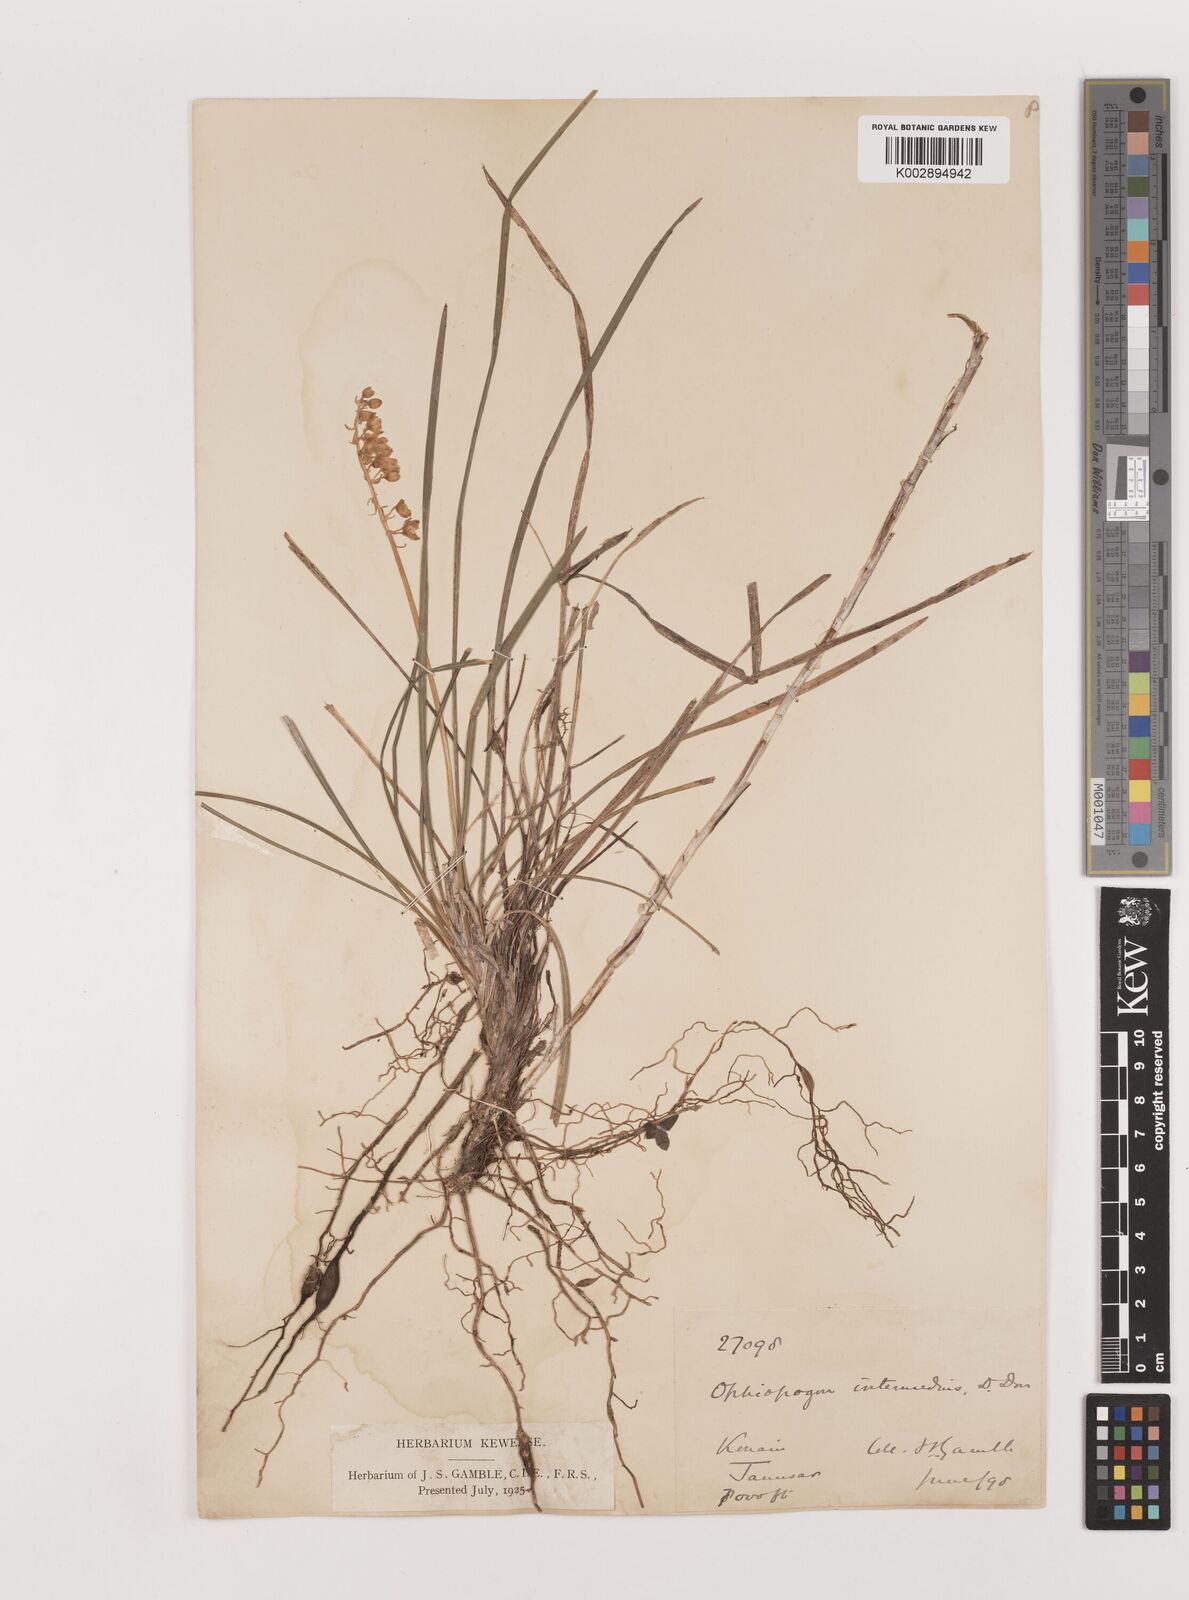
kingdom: Plantae
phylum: Tracheophyta
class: Liliopsida
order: Asparagales
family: Asparagaceae
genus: Ophiopogon
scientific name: Ophiopogon intermedius
